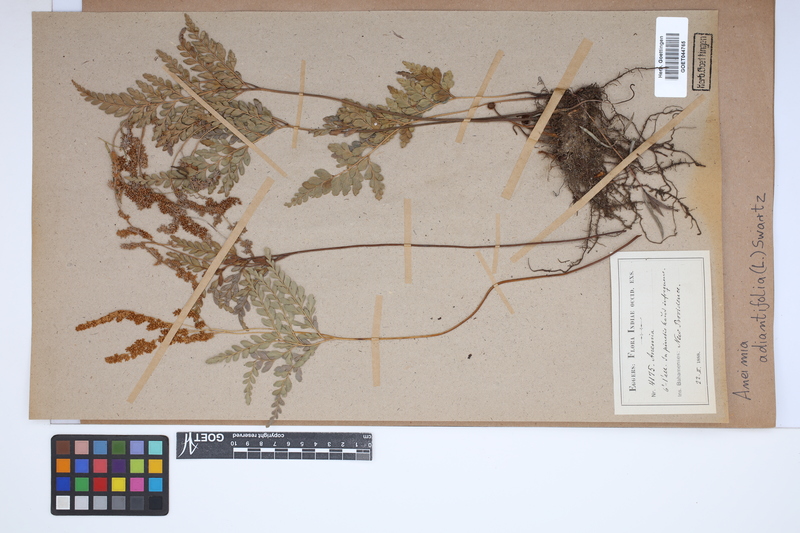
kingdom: Plantae
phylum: Tracheophyta
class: Polypodiopsida
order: Schizaeales
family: Anemiaceae
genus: Anemia
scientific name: Anemia adiantifolia
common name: Pine fern
